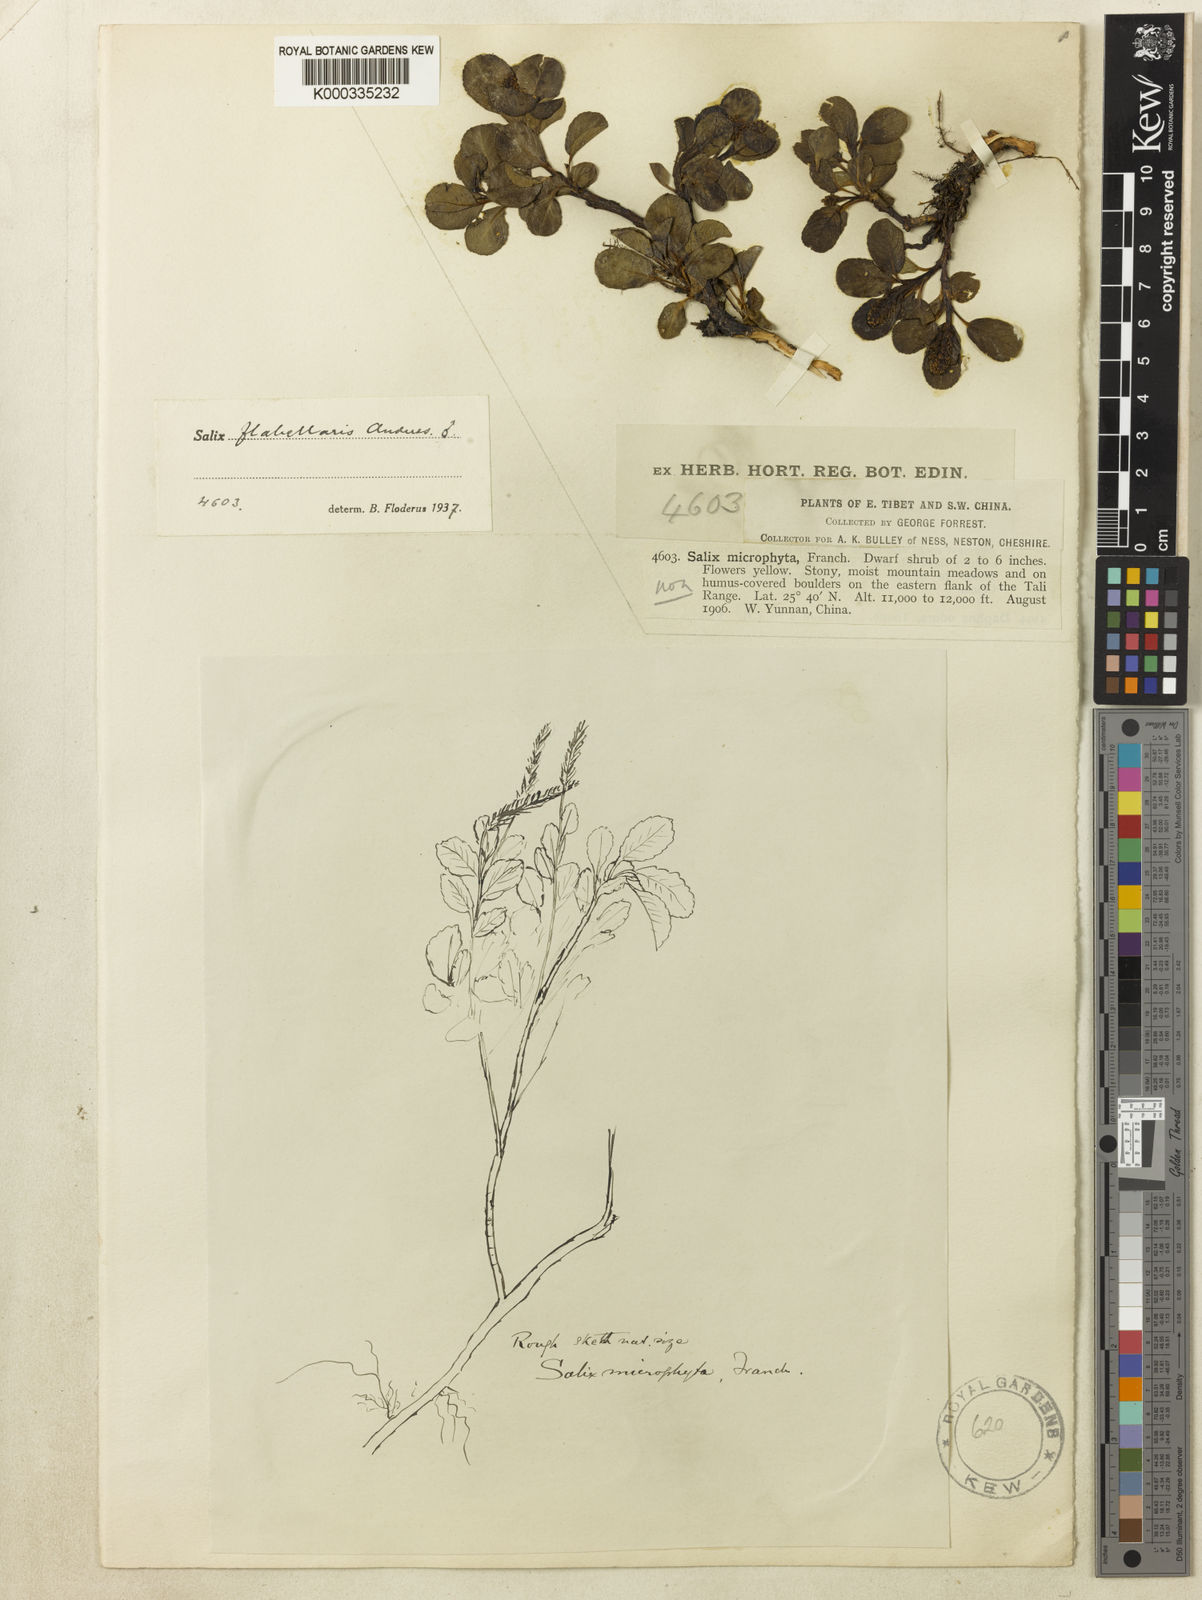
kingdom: Plantae
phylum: Tracheophyta
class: Magnoliopsida
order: Malpighiales
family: Salicaceae
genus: Salix
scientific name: Salix flabellaris
